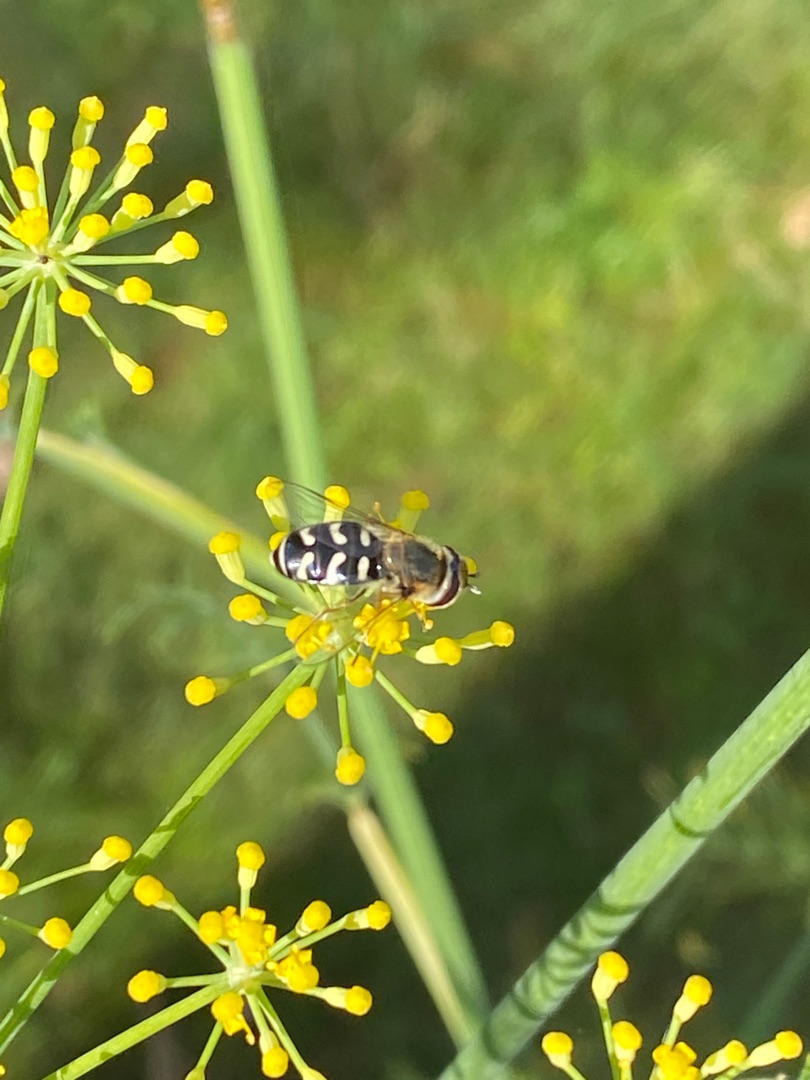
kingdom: Animalia
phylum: Arthropoda
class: Insecta
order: Diptera
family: Syrphidae
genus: Scaeva
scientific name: Scaeva pyrastri
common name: Hvidplettet agersvirreflue
